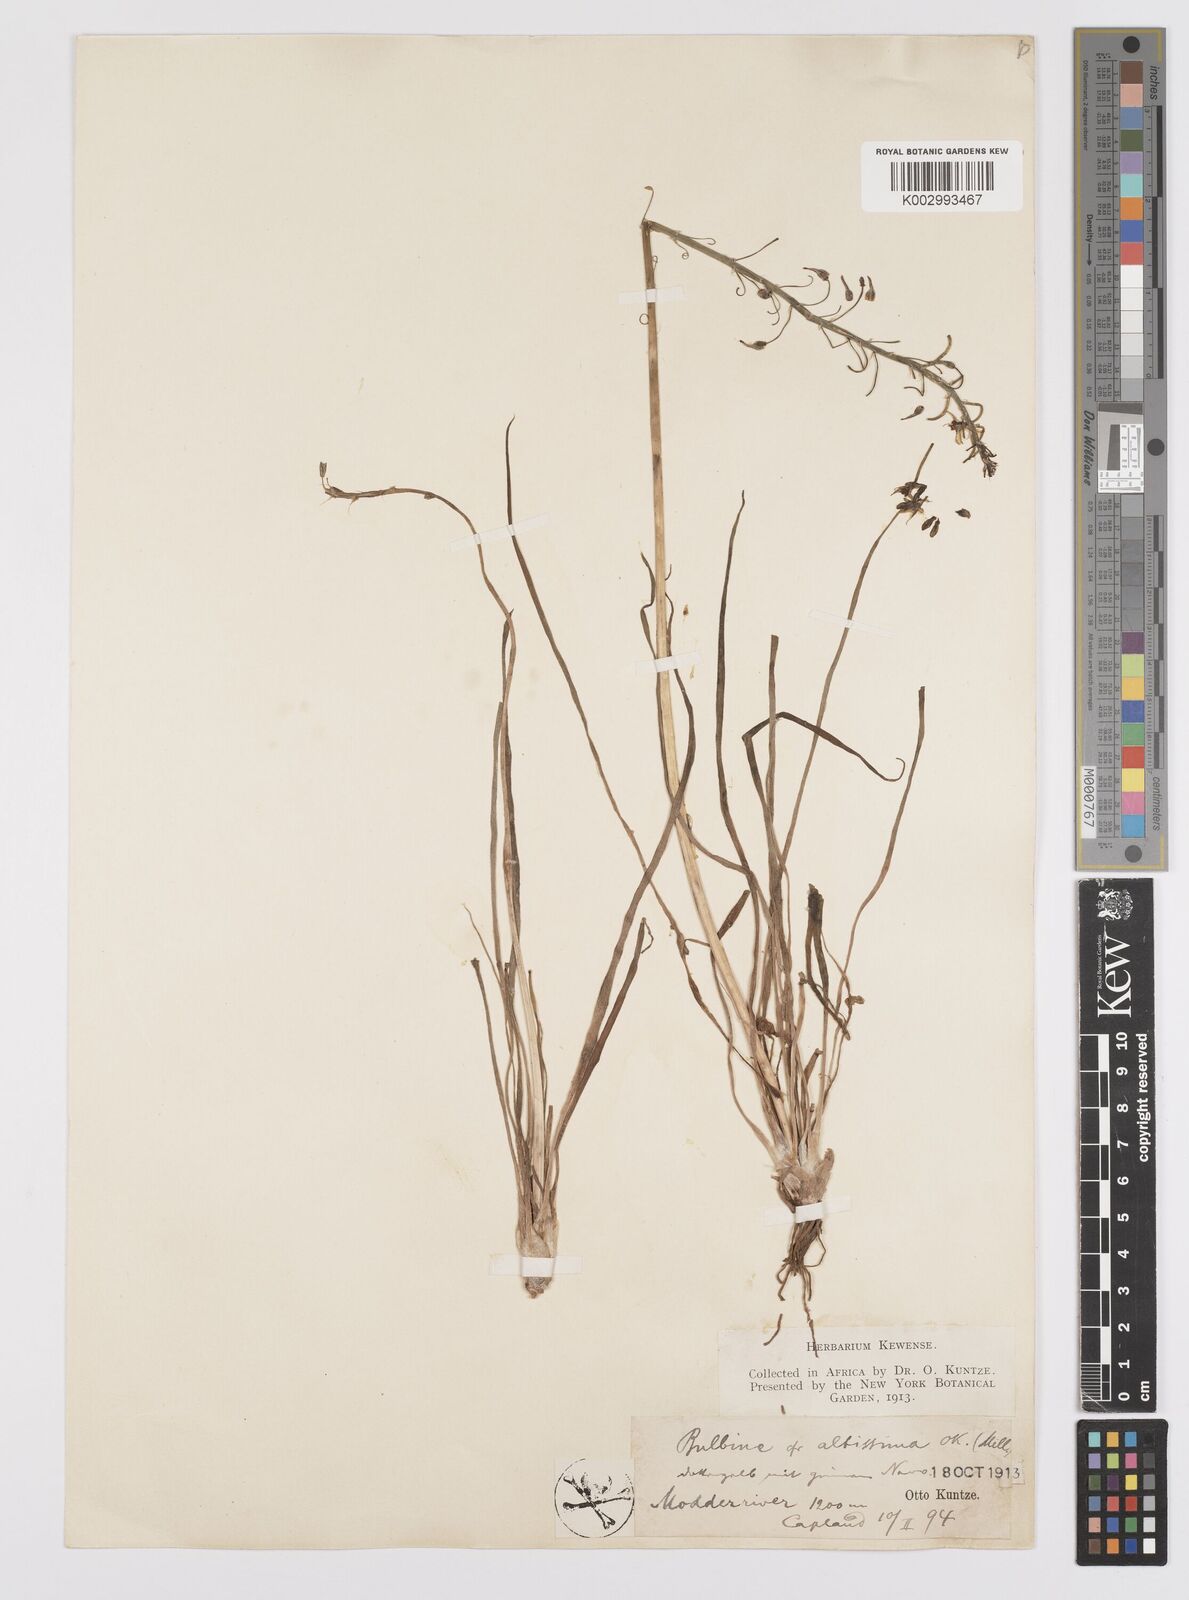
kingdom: Plantae
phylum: Tracheophyta
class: Liliopsida
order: Asparagales
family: Asphodelaceae
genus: Bulbine
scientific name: Bulbine asphodeloides
